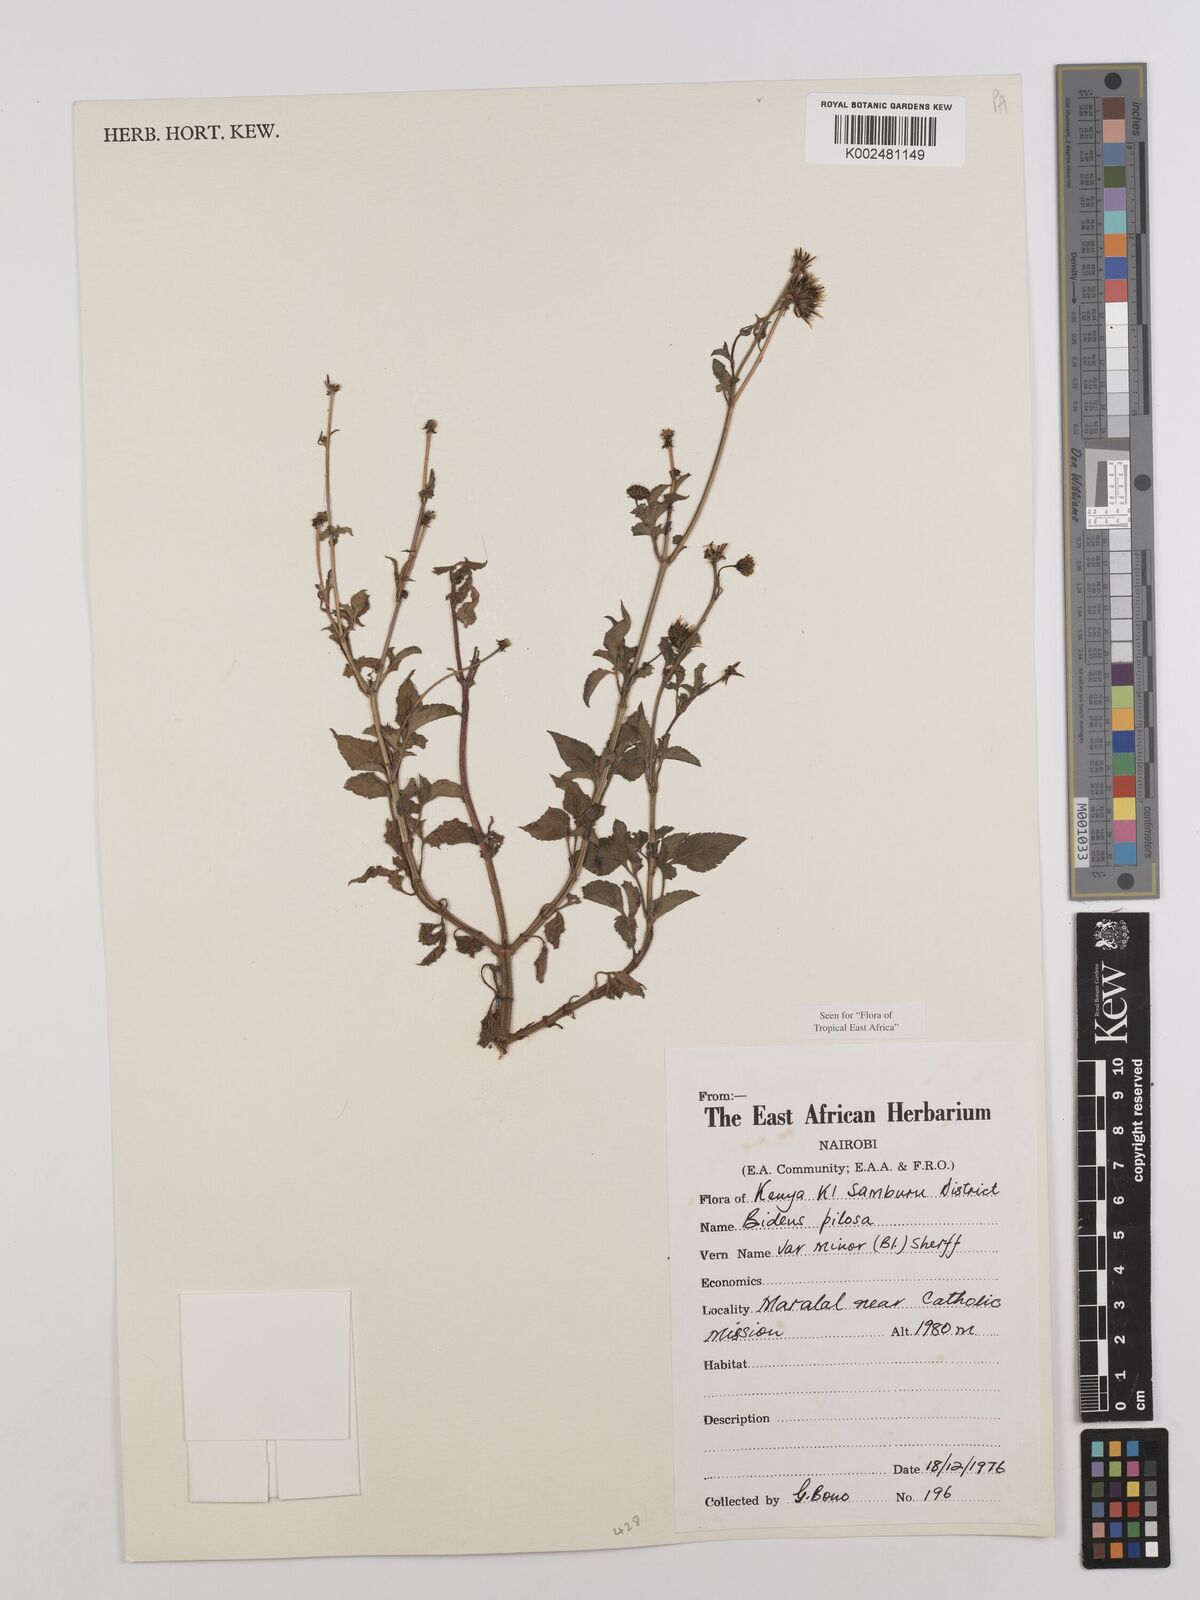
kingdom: Plantae
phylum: Tracheophyta
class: Magnoliopsida
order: Asterales
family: Asteraceae
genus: Bidens
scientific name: Bidens pilosa
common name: Black-jack
